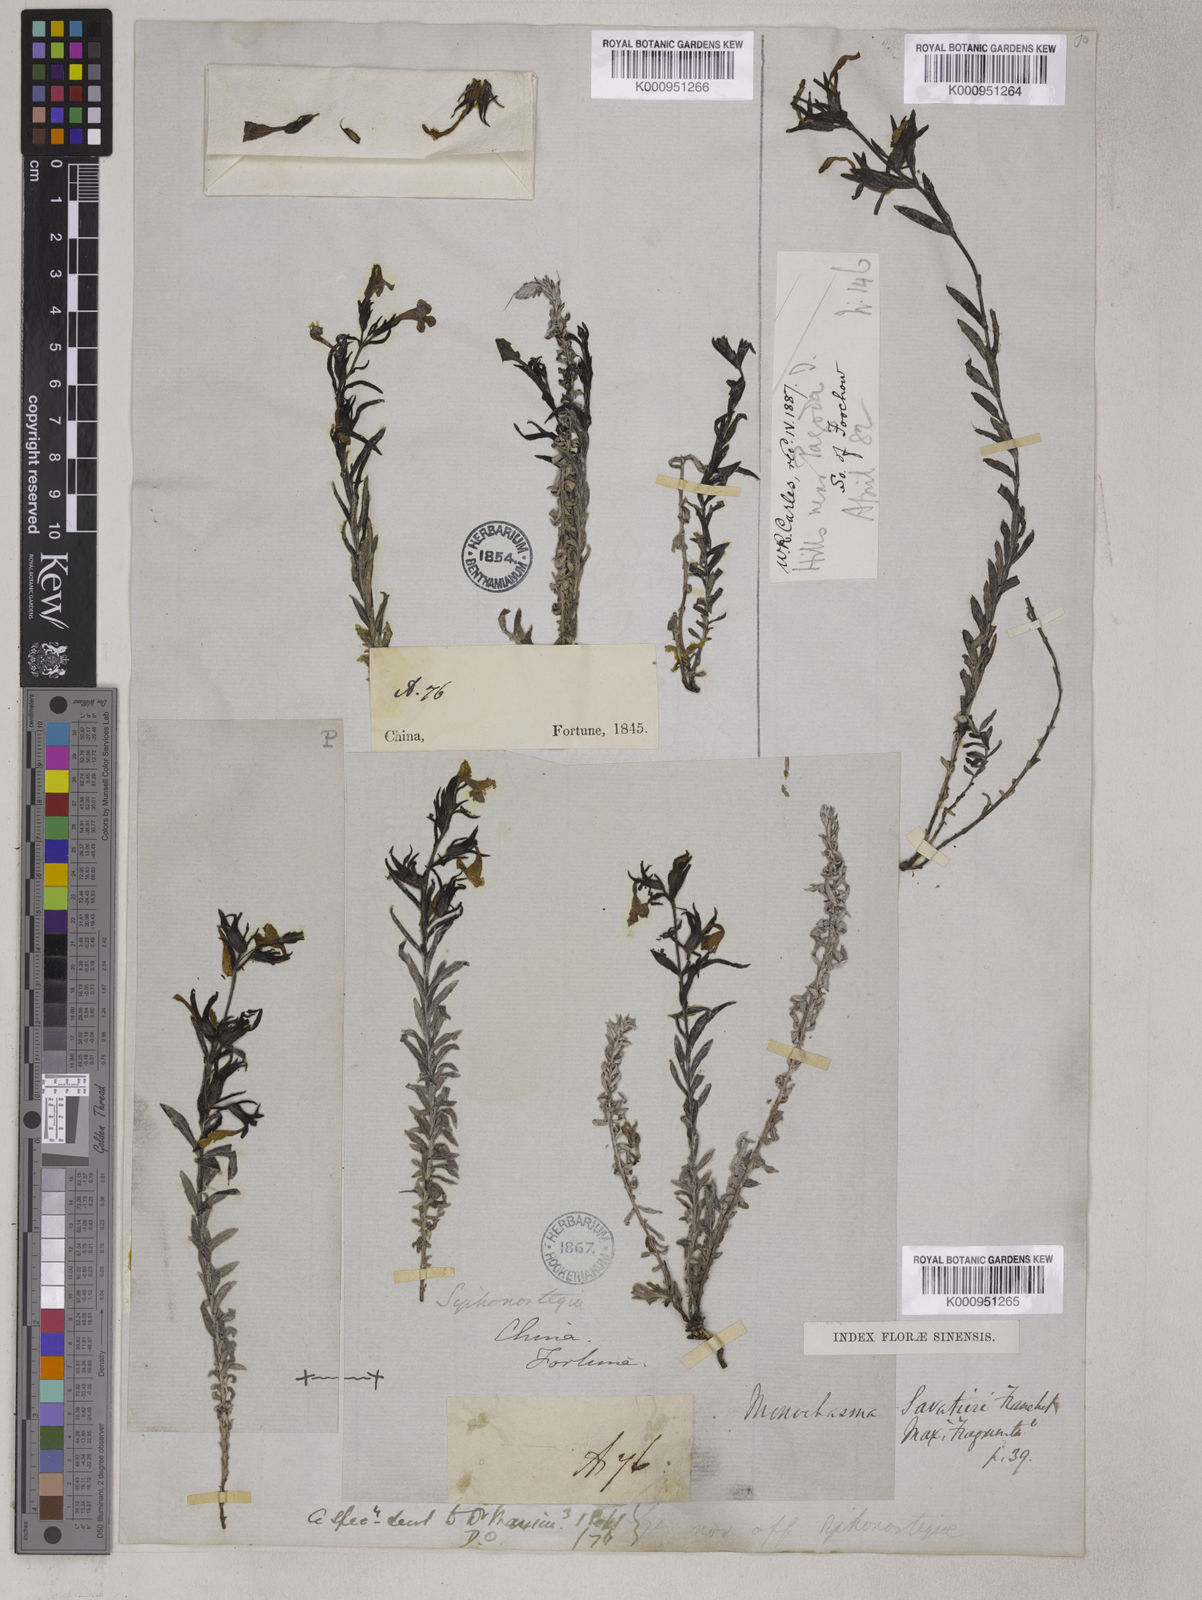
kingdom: Plantae
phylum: Tracheophyta
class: Magnoliopsida
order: Lamiales
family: Orobanchaceae
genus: Bungea
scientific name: Bungea
